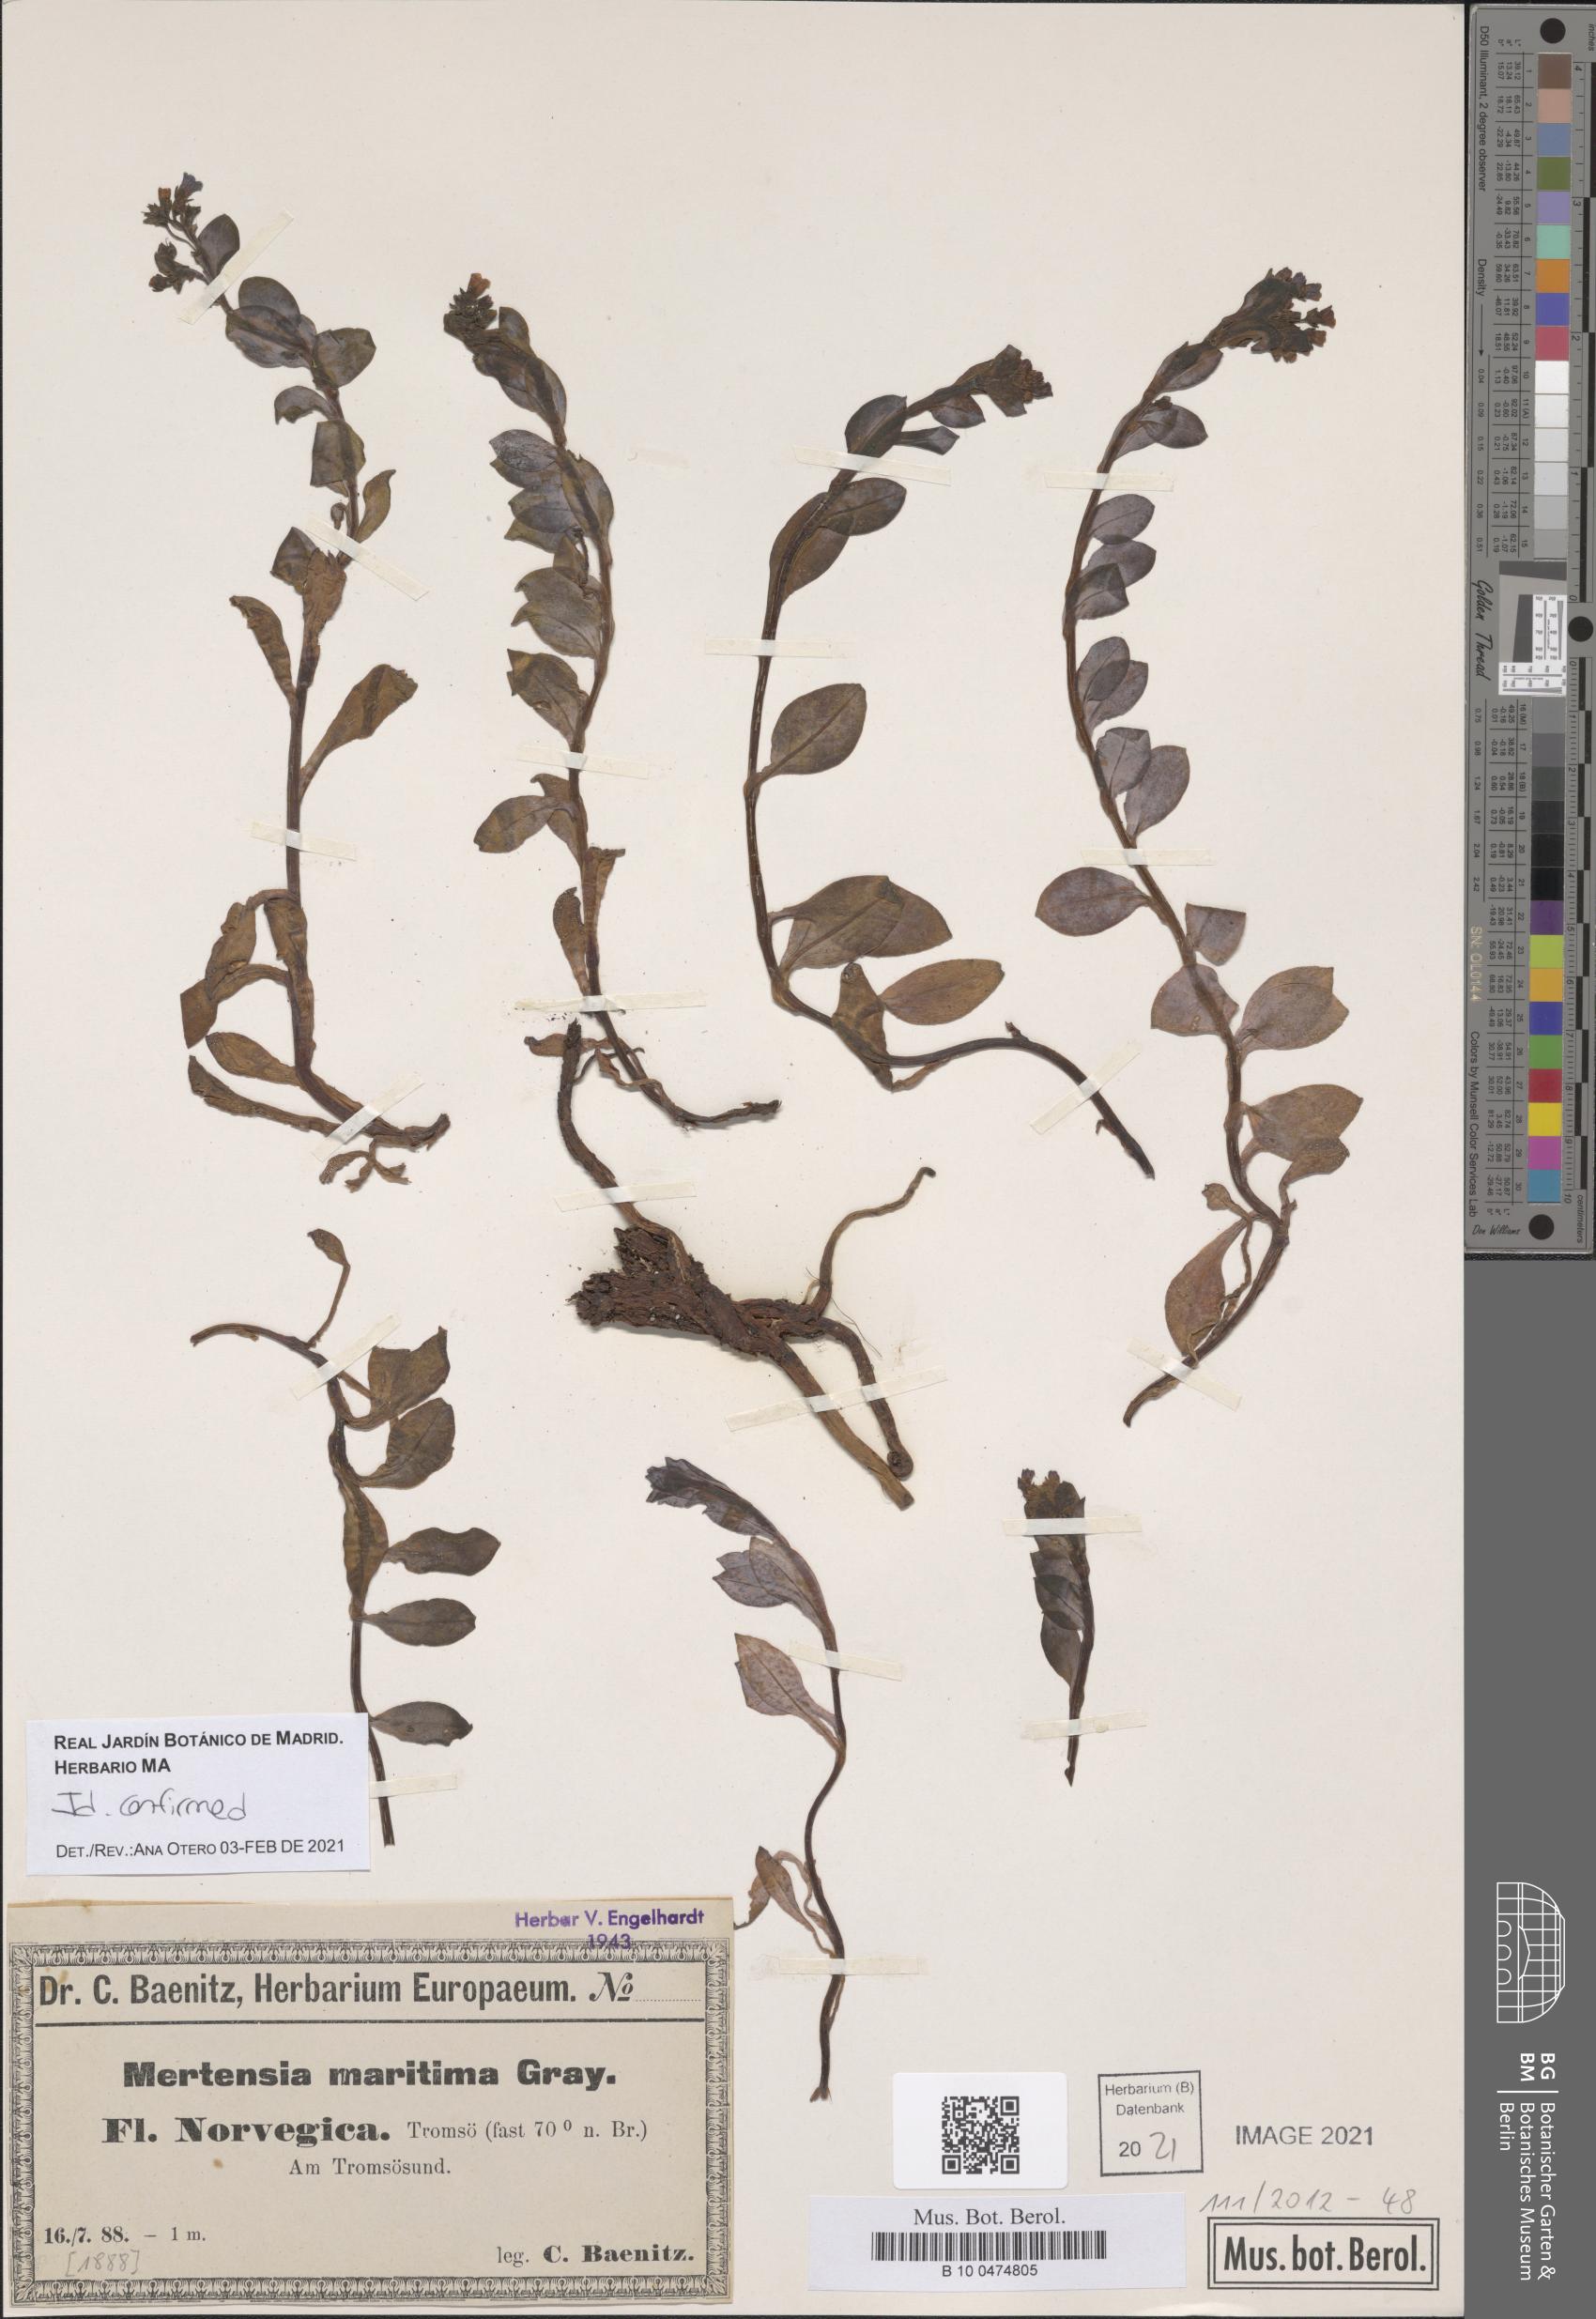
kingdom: Plantae
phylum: Tracheophyta
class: Magnoliopsida
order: Boraginales
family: Boraginaceae
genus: Mertensia
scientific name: Mertensia maritima
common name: Oysterplant
